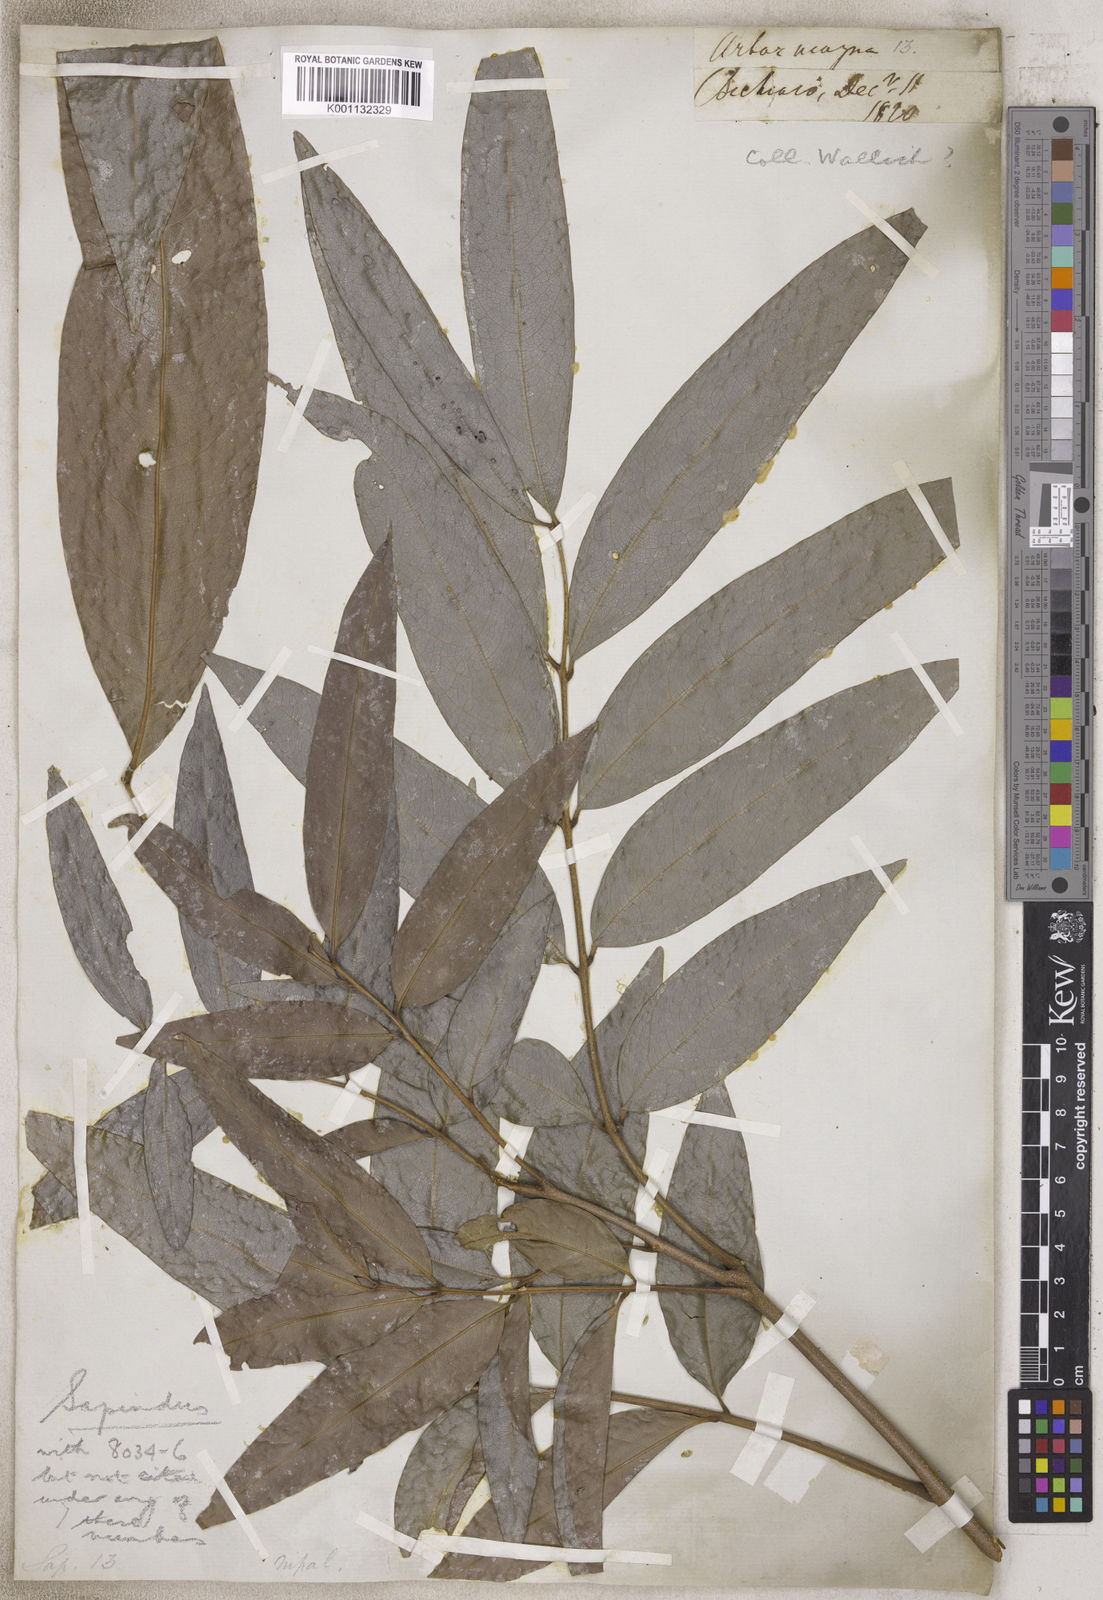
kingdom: Plantae
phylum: Tracheophyta
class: Magnoliopsida
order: Sapindales
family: Sapindaceae
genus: Sapindus
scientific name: Sapindus
